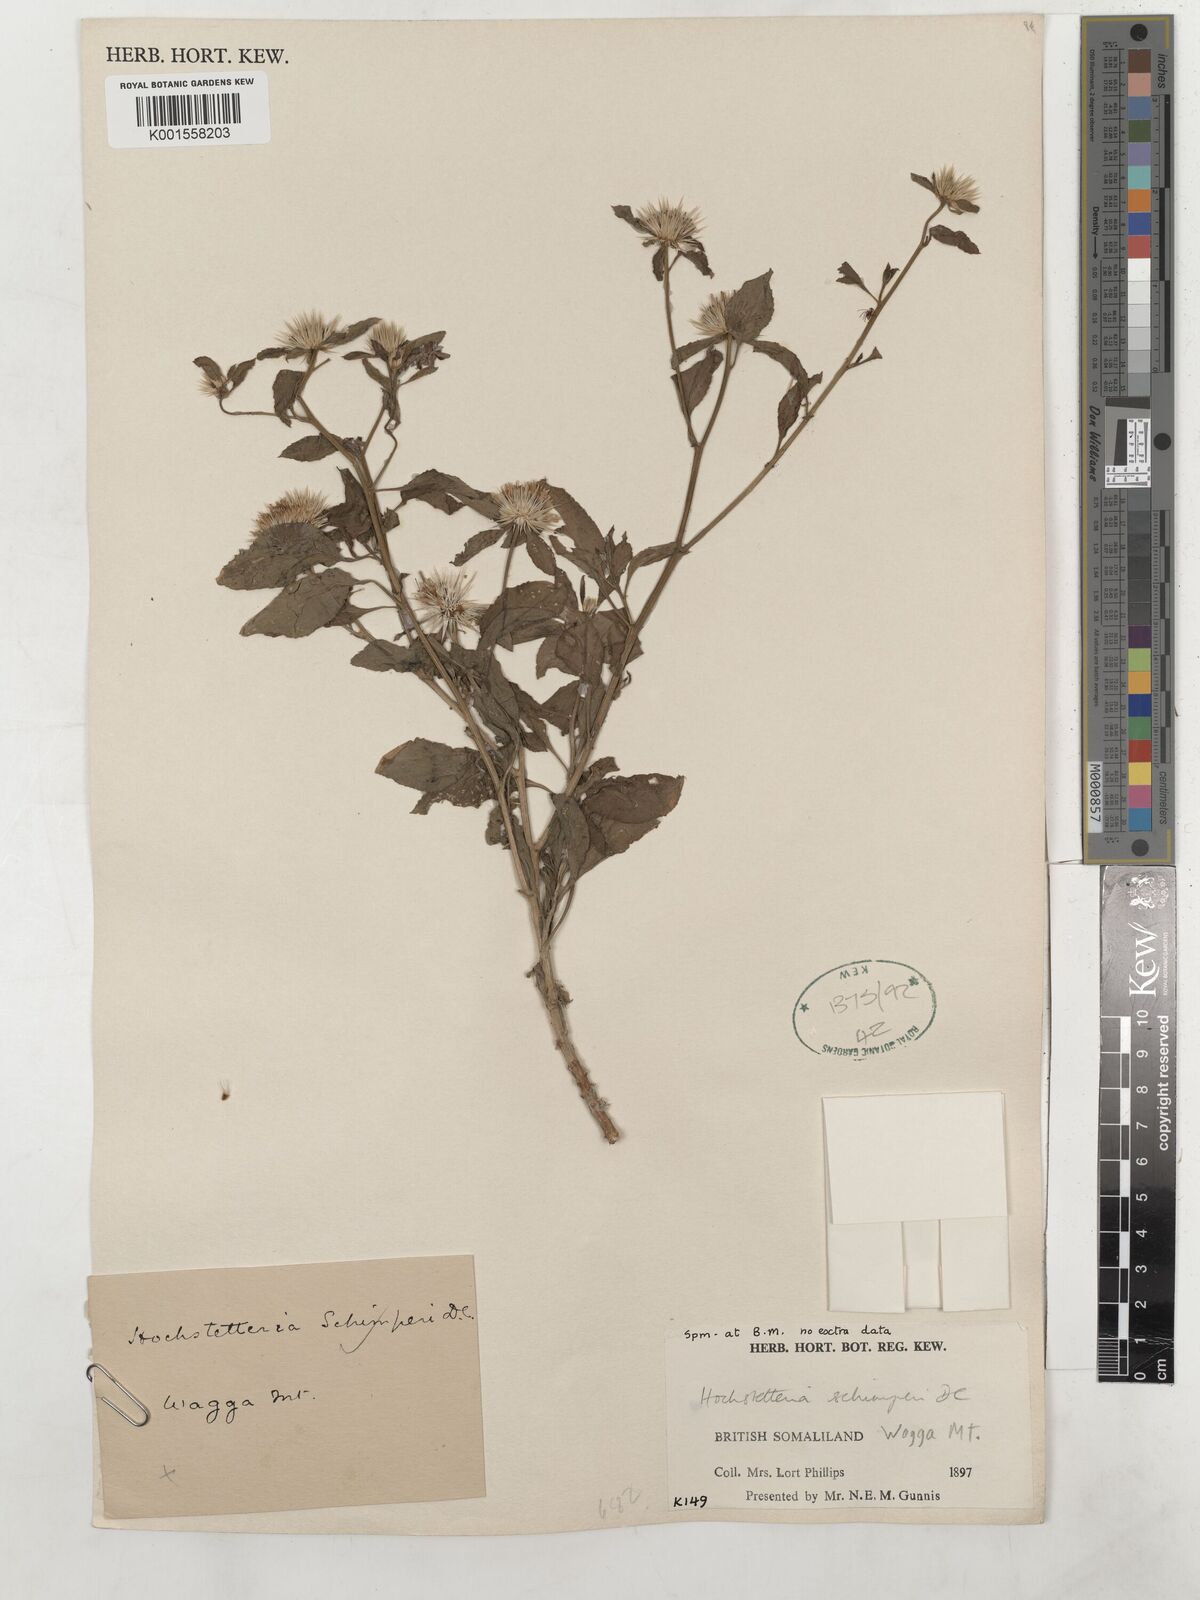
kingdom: Plantae
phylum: Tracheophyta
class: Magnoliopsida
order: Asterales
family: Asteraceae
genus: Dicoma
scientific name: Dicoma schimperi
